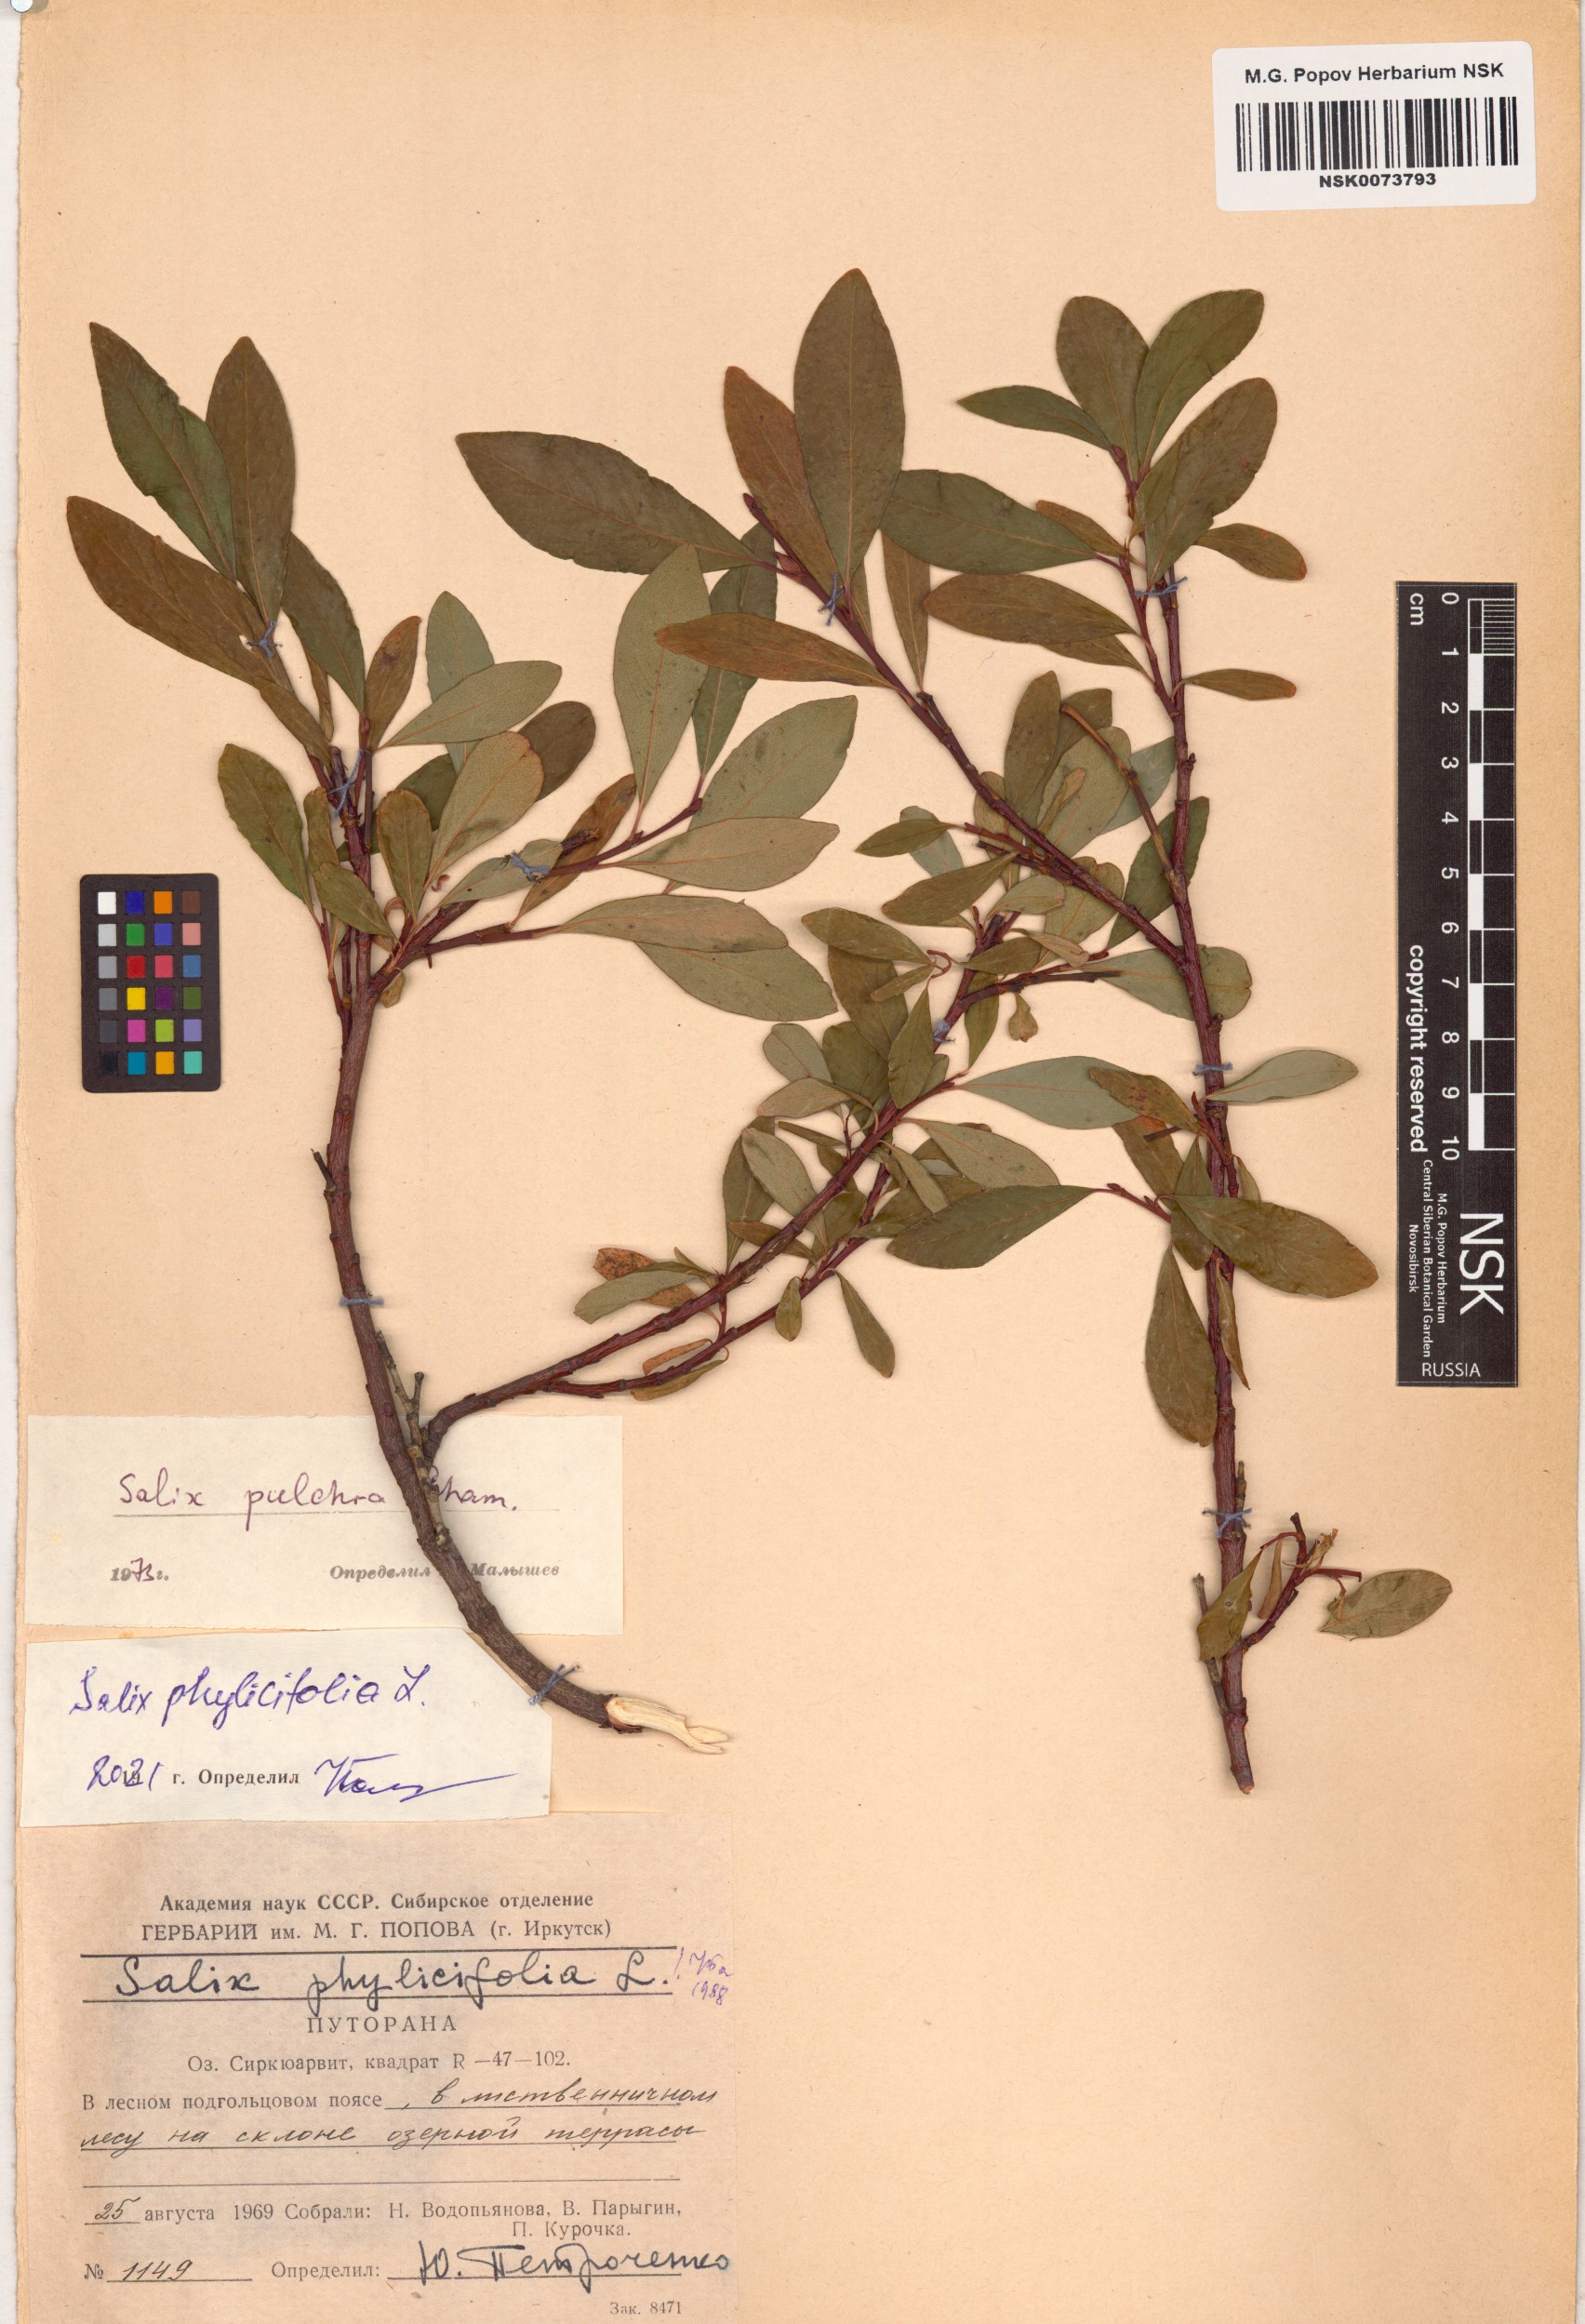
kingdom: Plantae
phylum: Tracheophyta
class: Magnoliopsida
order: Malpighiales
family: Salicaceae
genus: Salix
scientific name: Salix phylicifolia
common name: Tea-leaved willow
